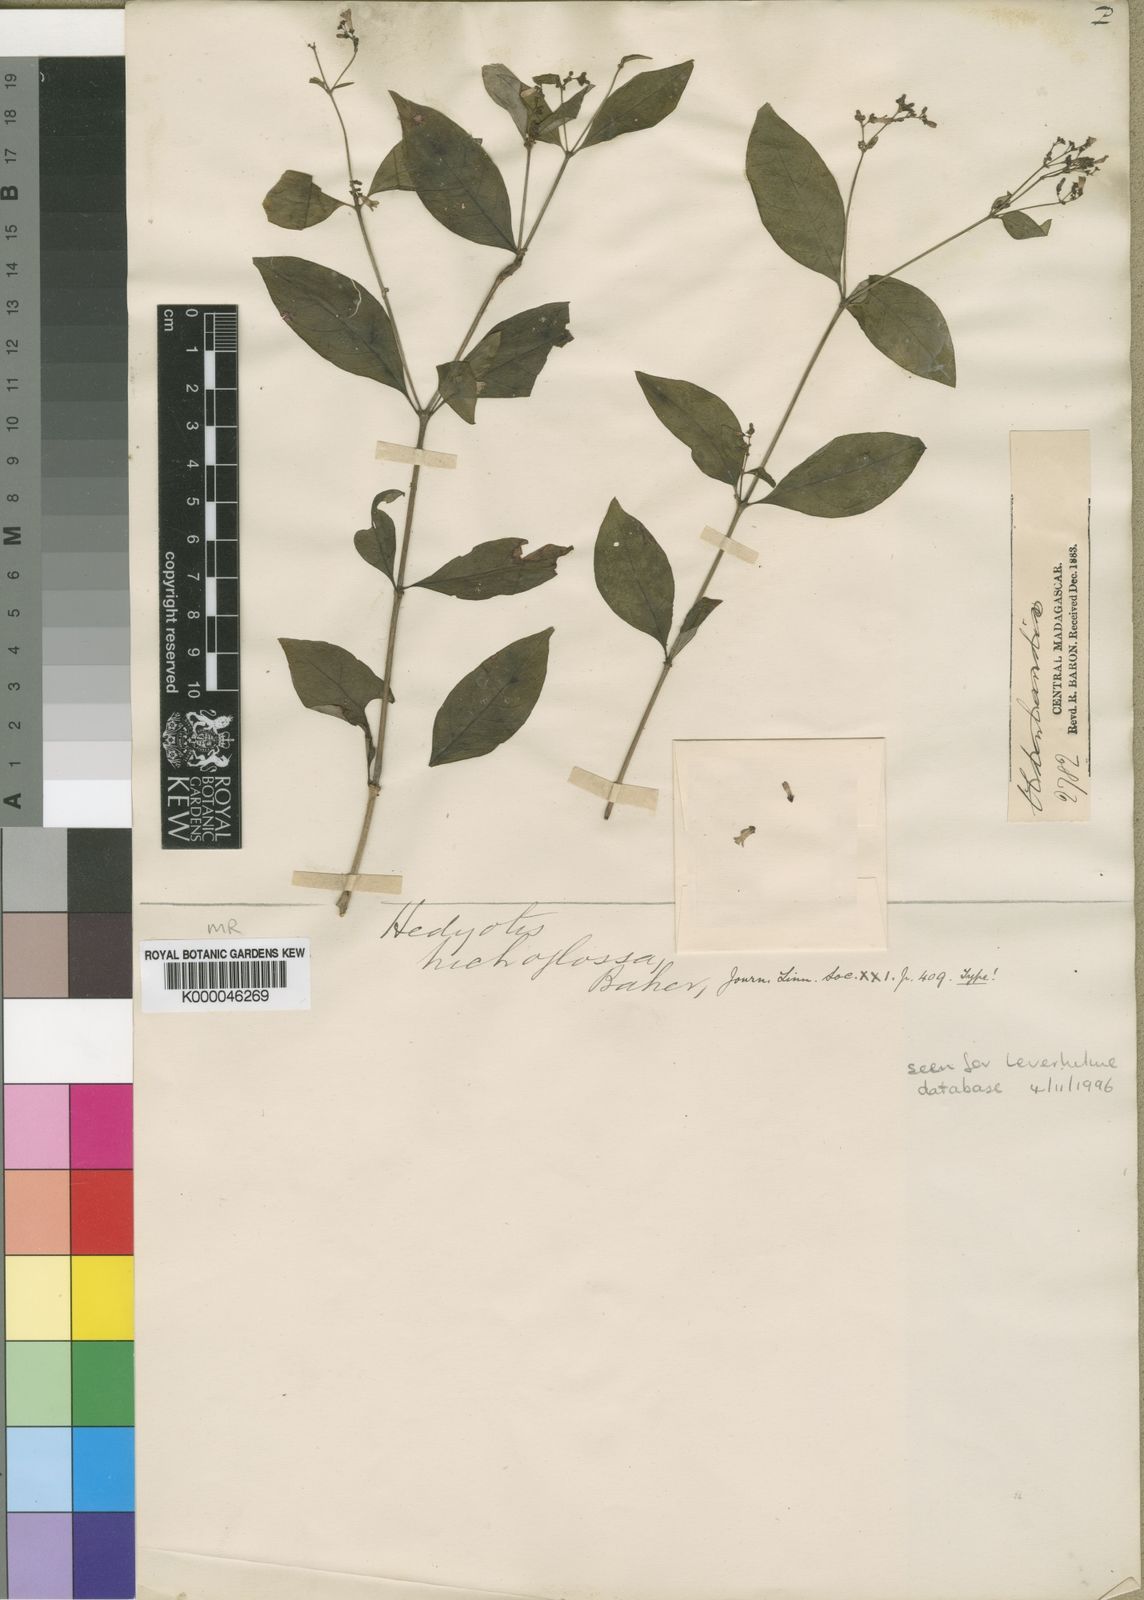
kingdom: Plantae
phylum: Tracheophyta
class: Magnoliopsida
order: Gentianales
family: Rubiaceae
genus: Oldenlandia
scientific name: Oldenlandia
